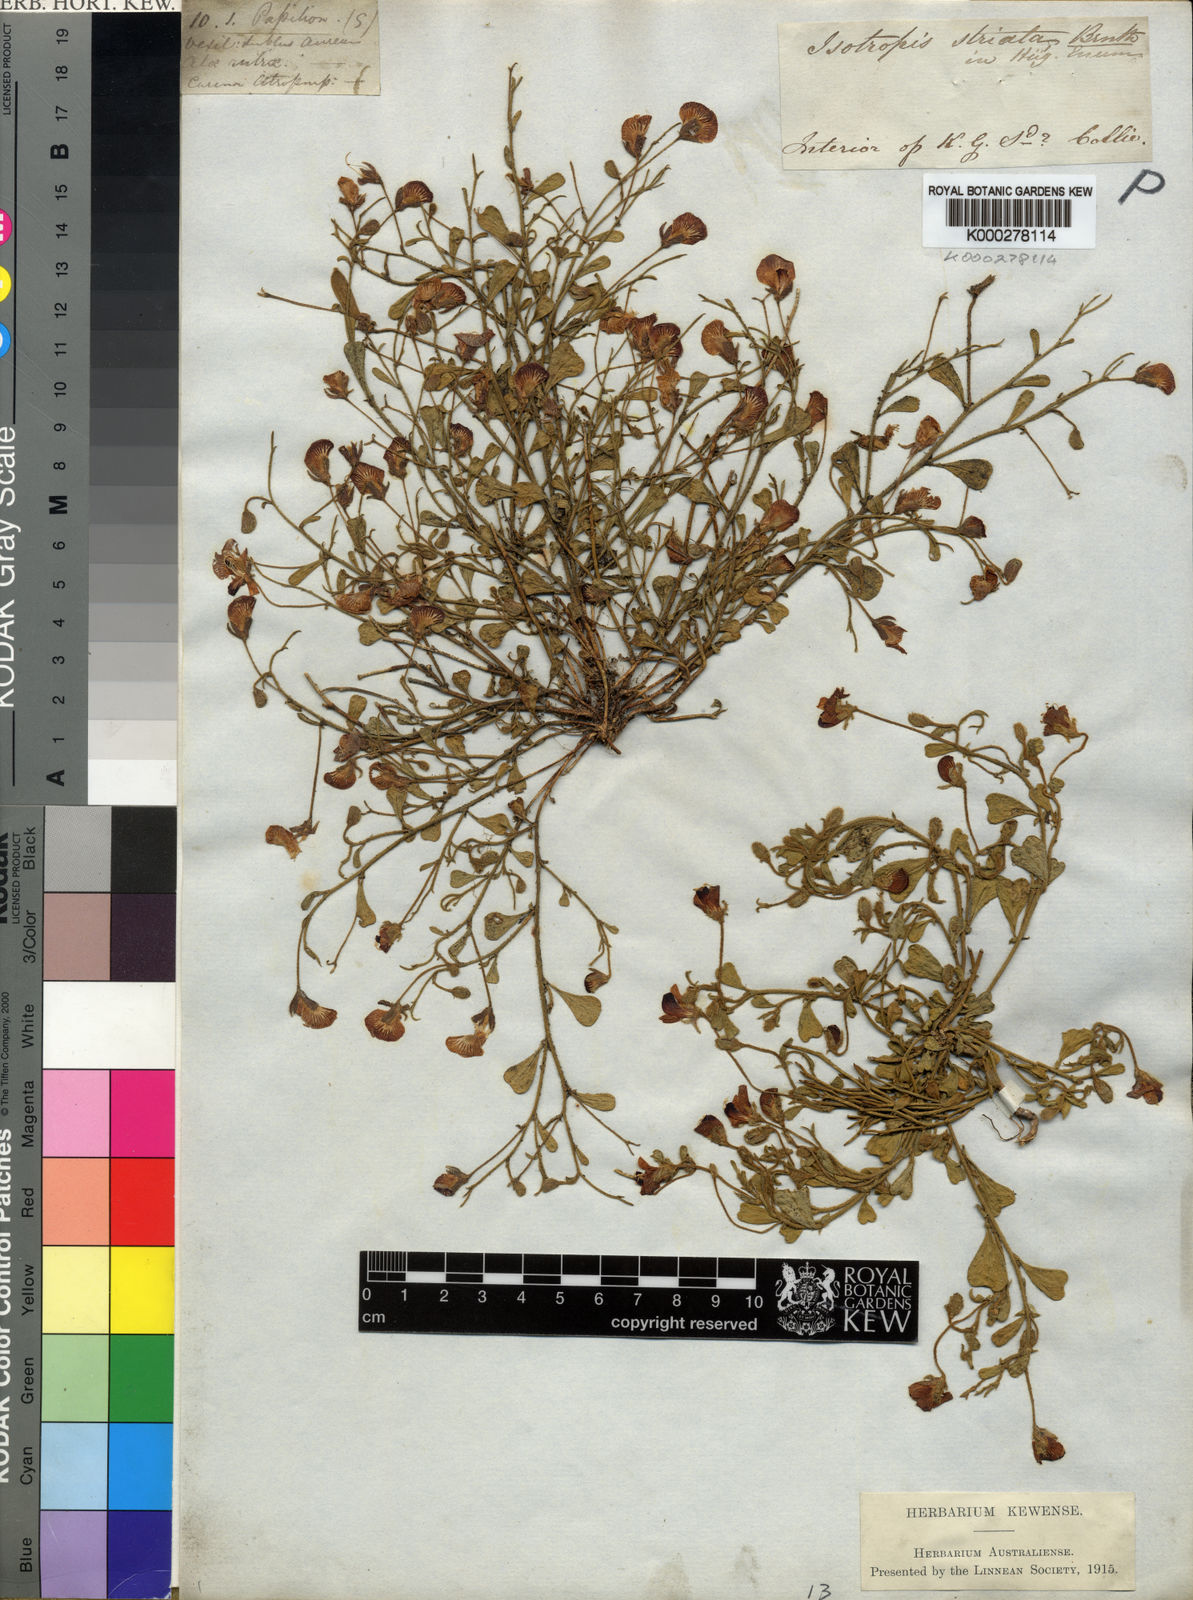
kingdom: Plantae
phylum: Tracheophyta
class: Magnoliopsida
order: Fabales
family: Fabaceae
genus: Isotropis
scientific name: Isotropis cuneifolia
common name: Granny bonnets
